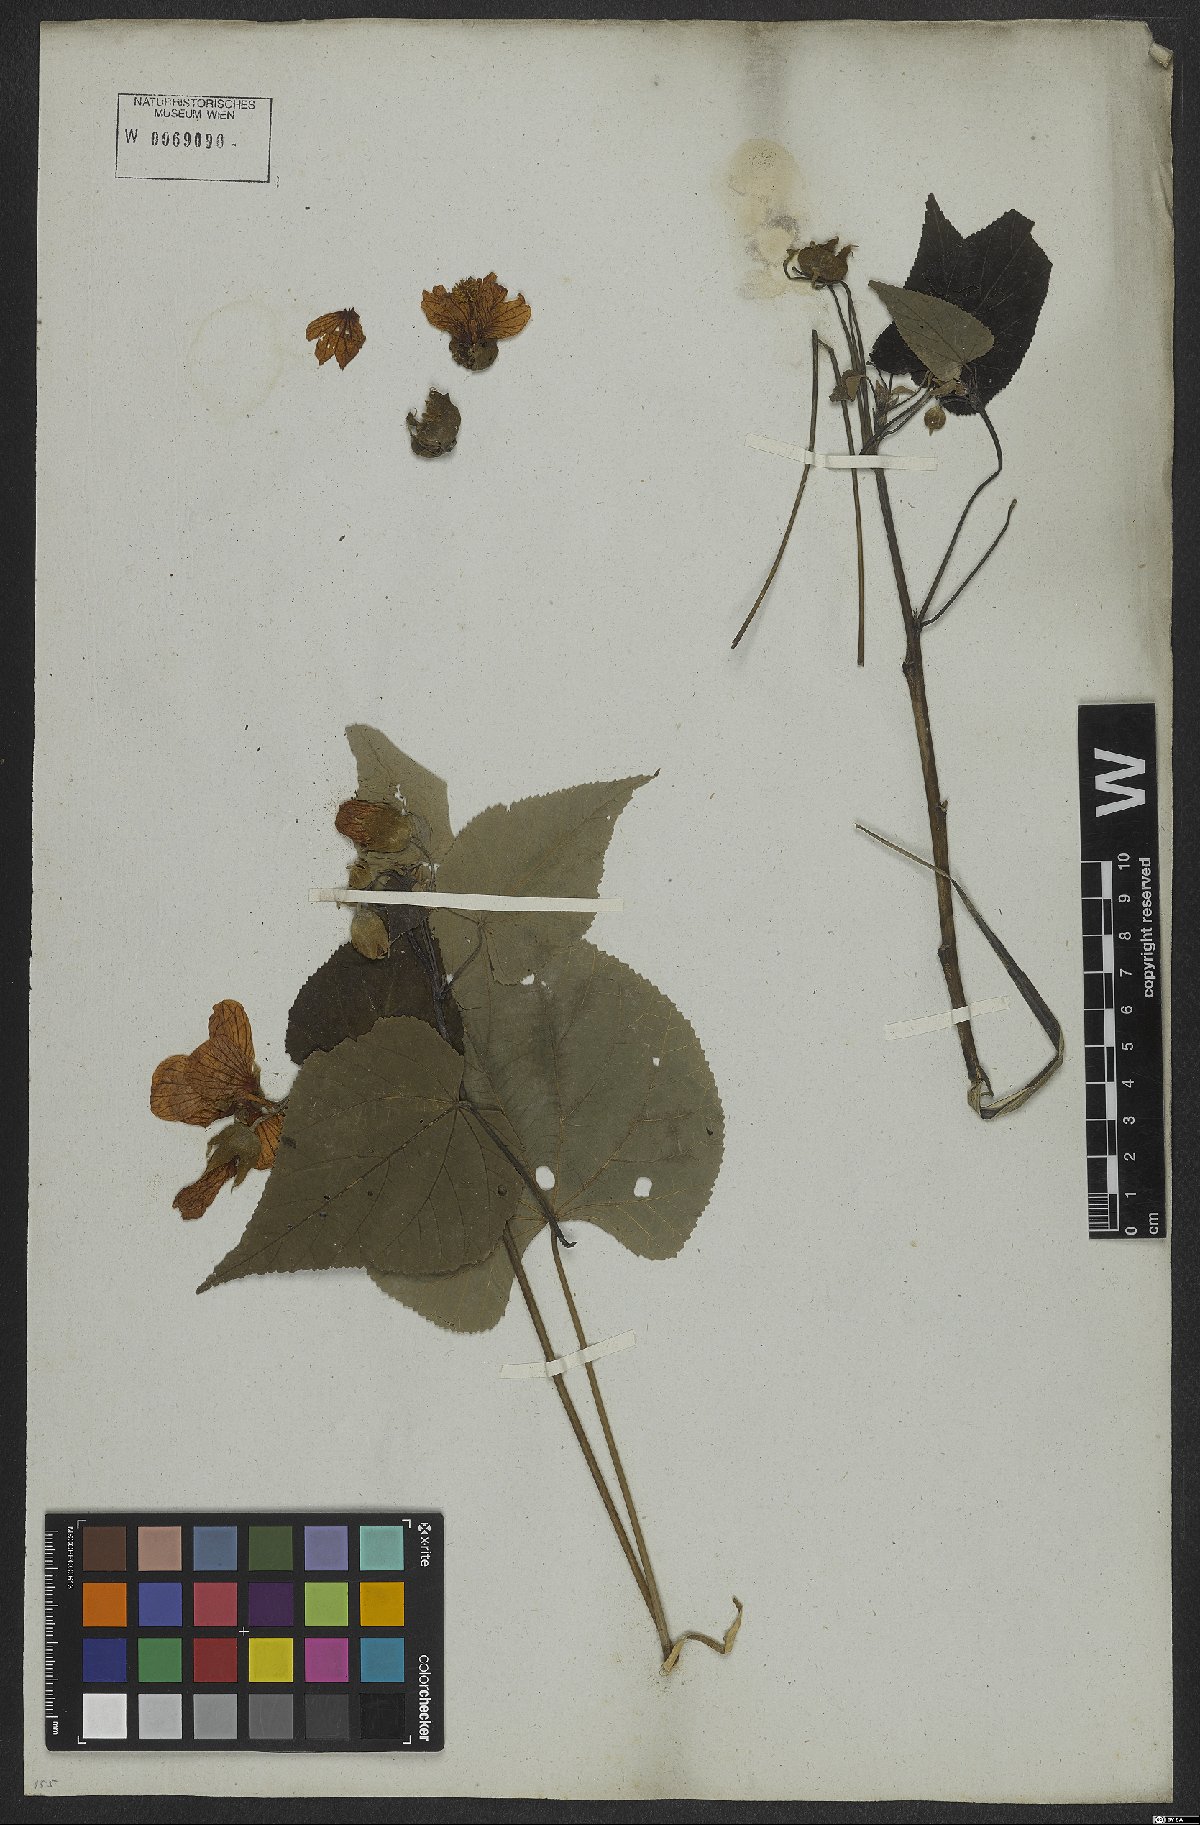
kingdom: Plantae
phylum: Tracheophyta
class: Magnoliopsida
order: Malvales
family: Malvaceae
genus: Callianthe
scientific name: Callianthe bedfordiana
